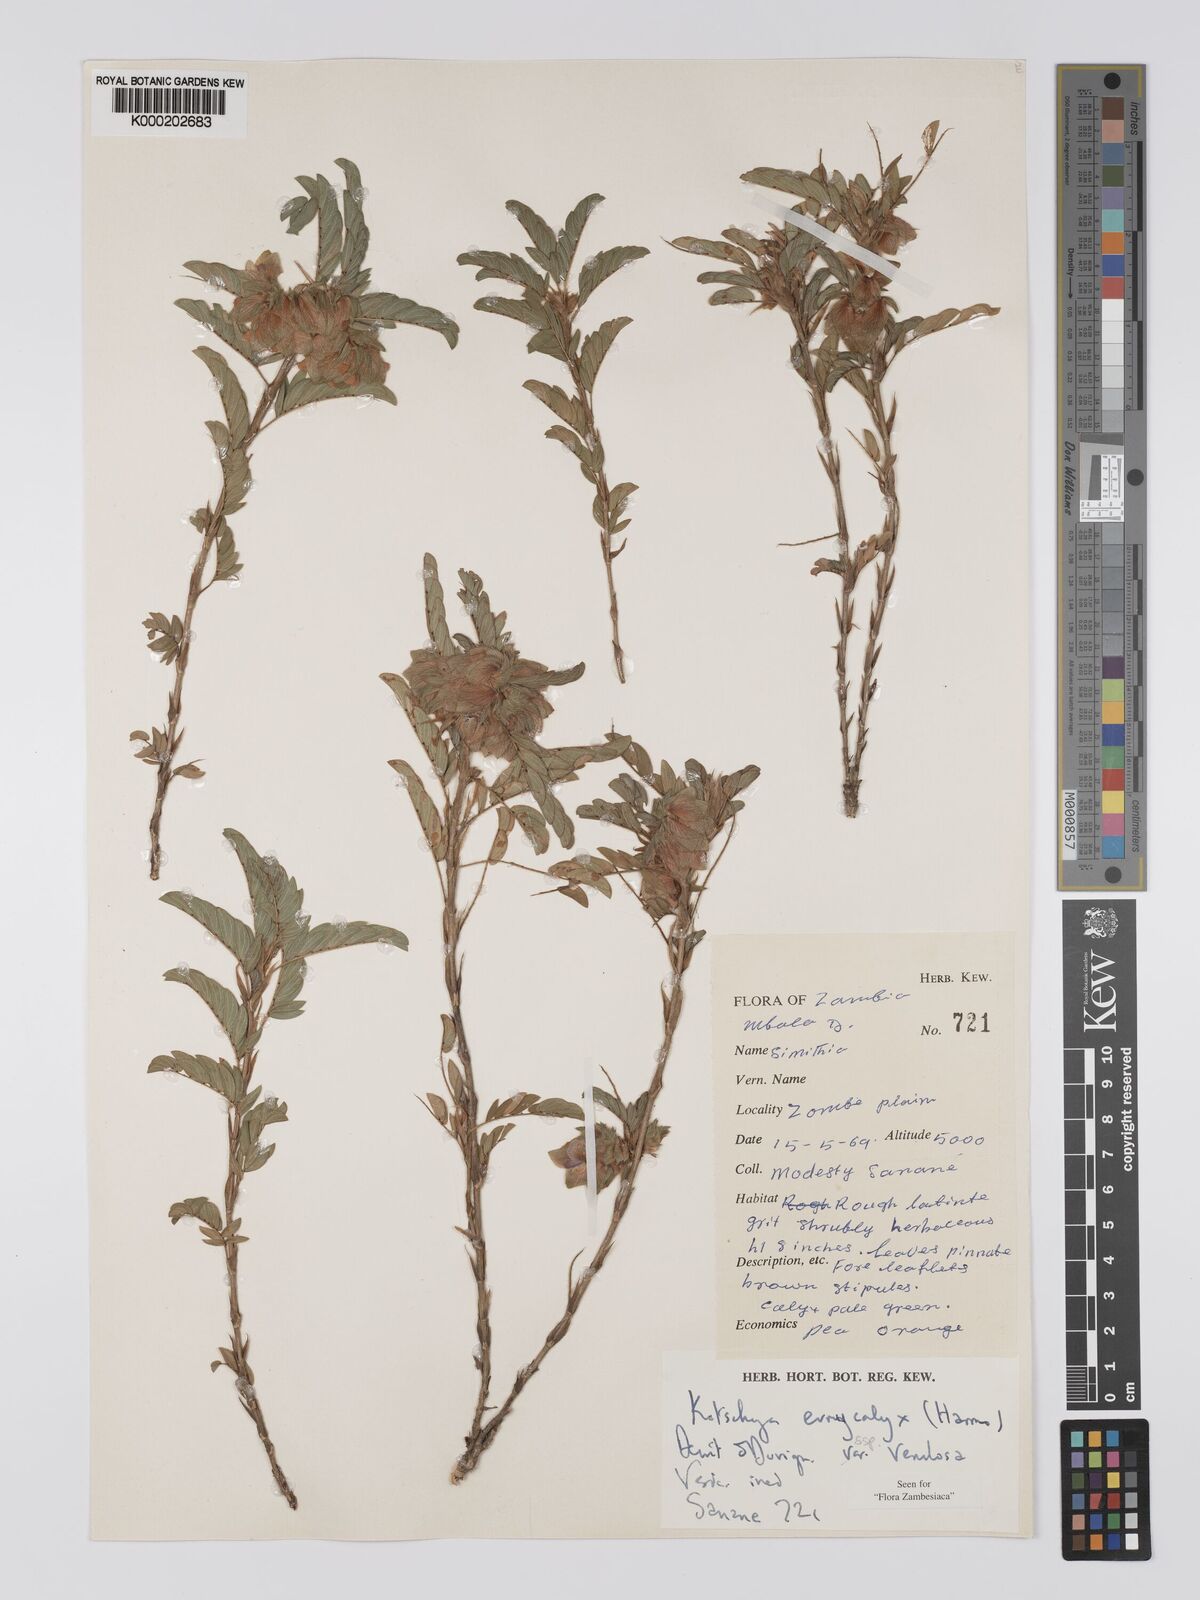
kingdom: Plantae
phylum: Tracheophyta
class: Magnoliopsida
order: Fabales
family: Fabaceae
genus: Kotschya
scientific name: Kotschya eurycalyx
